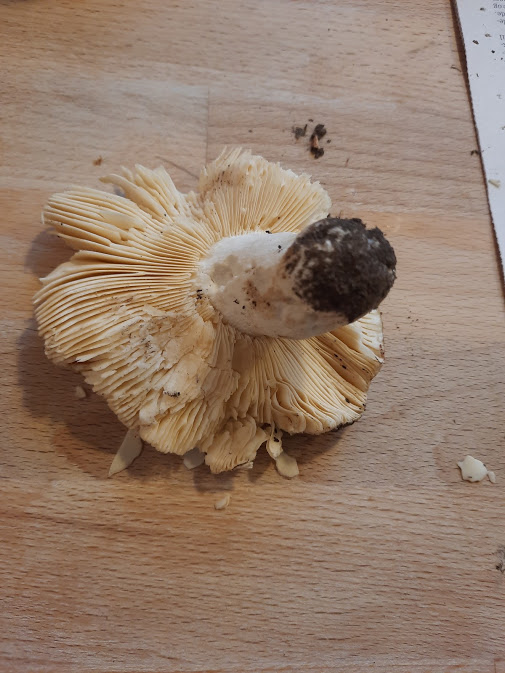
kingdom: Fungi
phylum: Basidiomycota
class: Agaricomycetes
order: Russulales
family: Russulaceae
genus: Russula
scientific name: Russula
